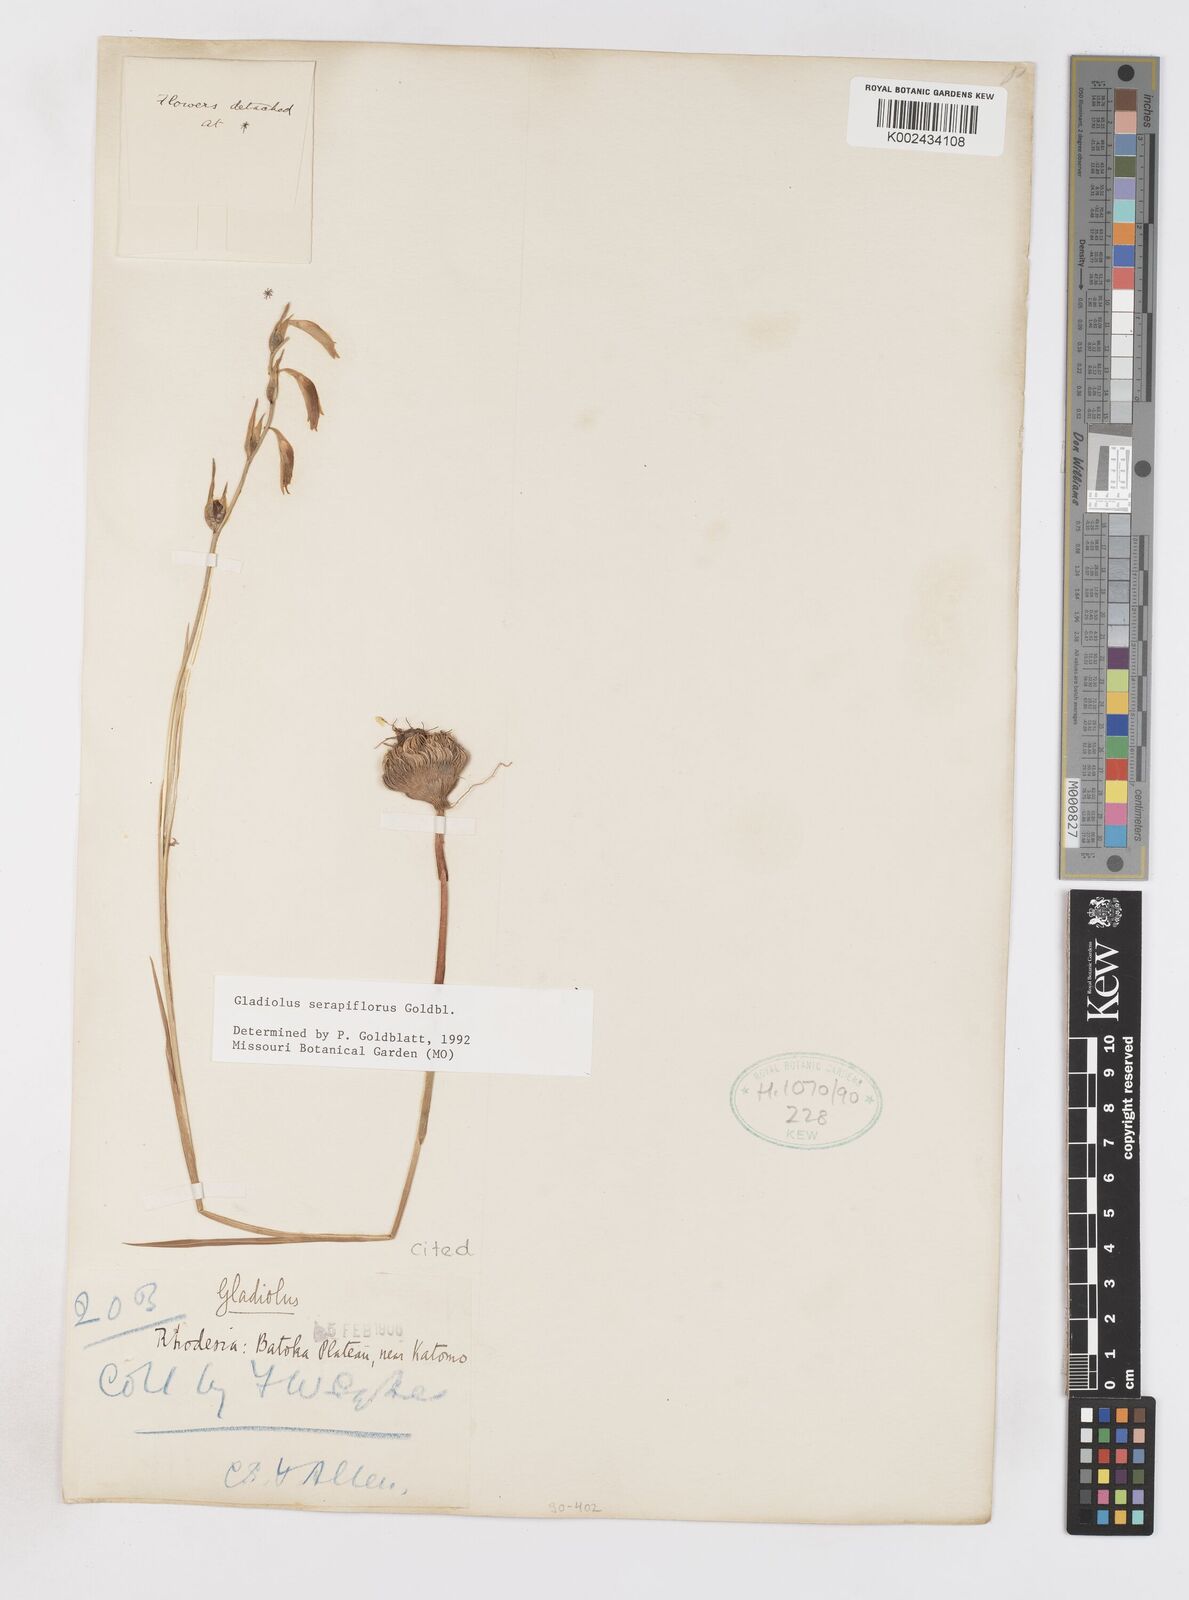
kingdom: Plantae
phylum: Tracheophyta
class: Liliopsida
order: Asparagales
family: Iridaceae
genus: Gladiolus
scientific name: Gladiolus serapiiflorus
